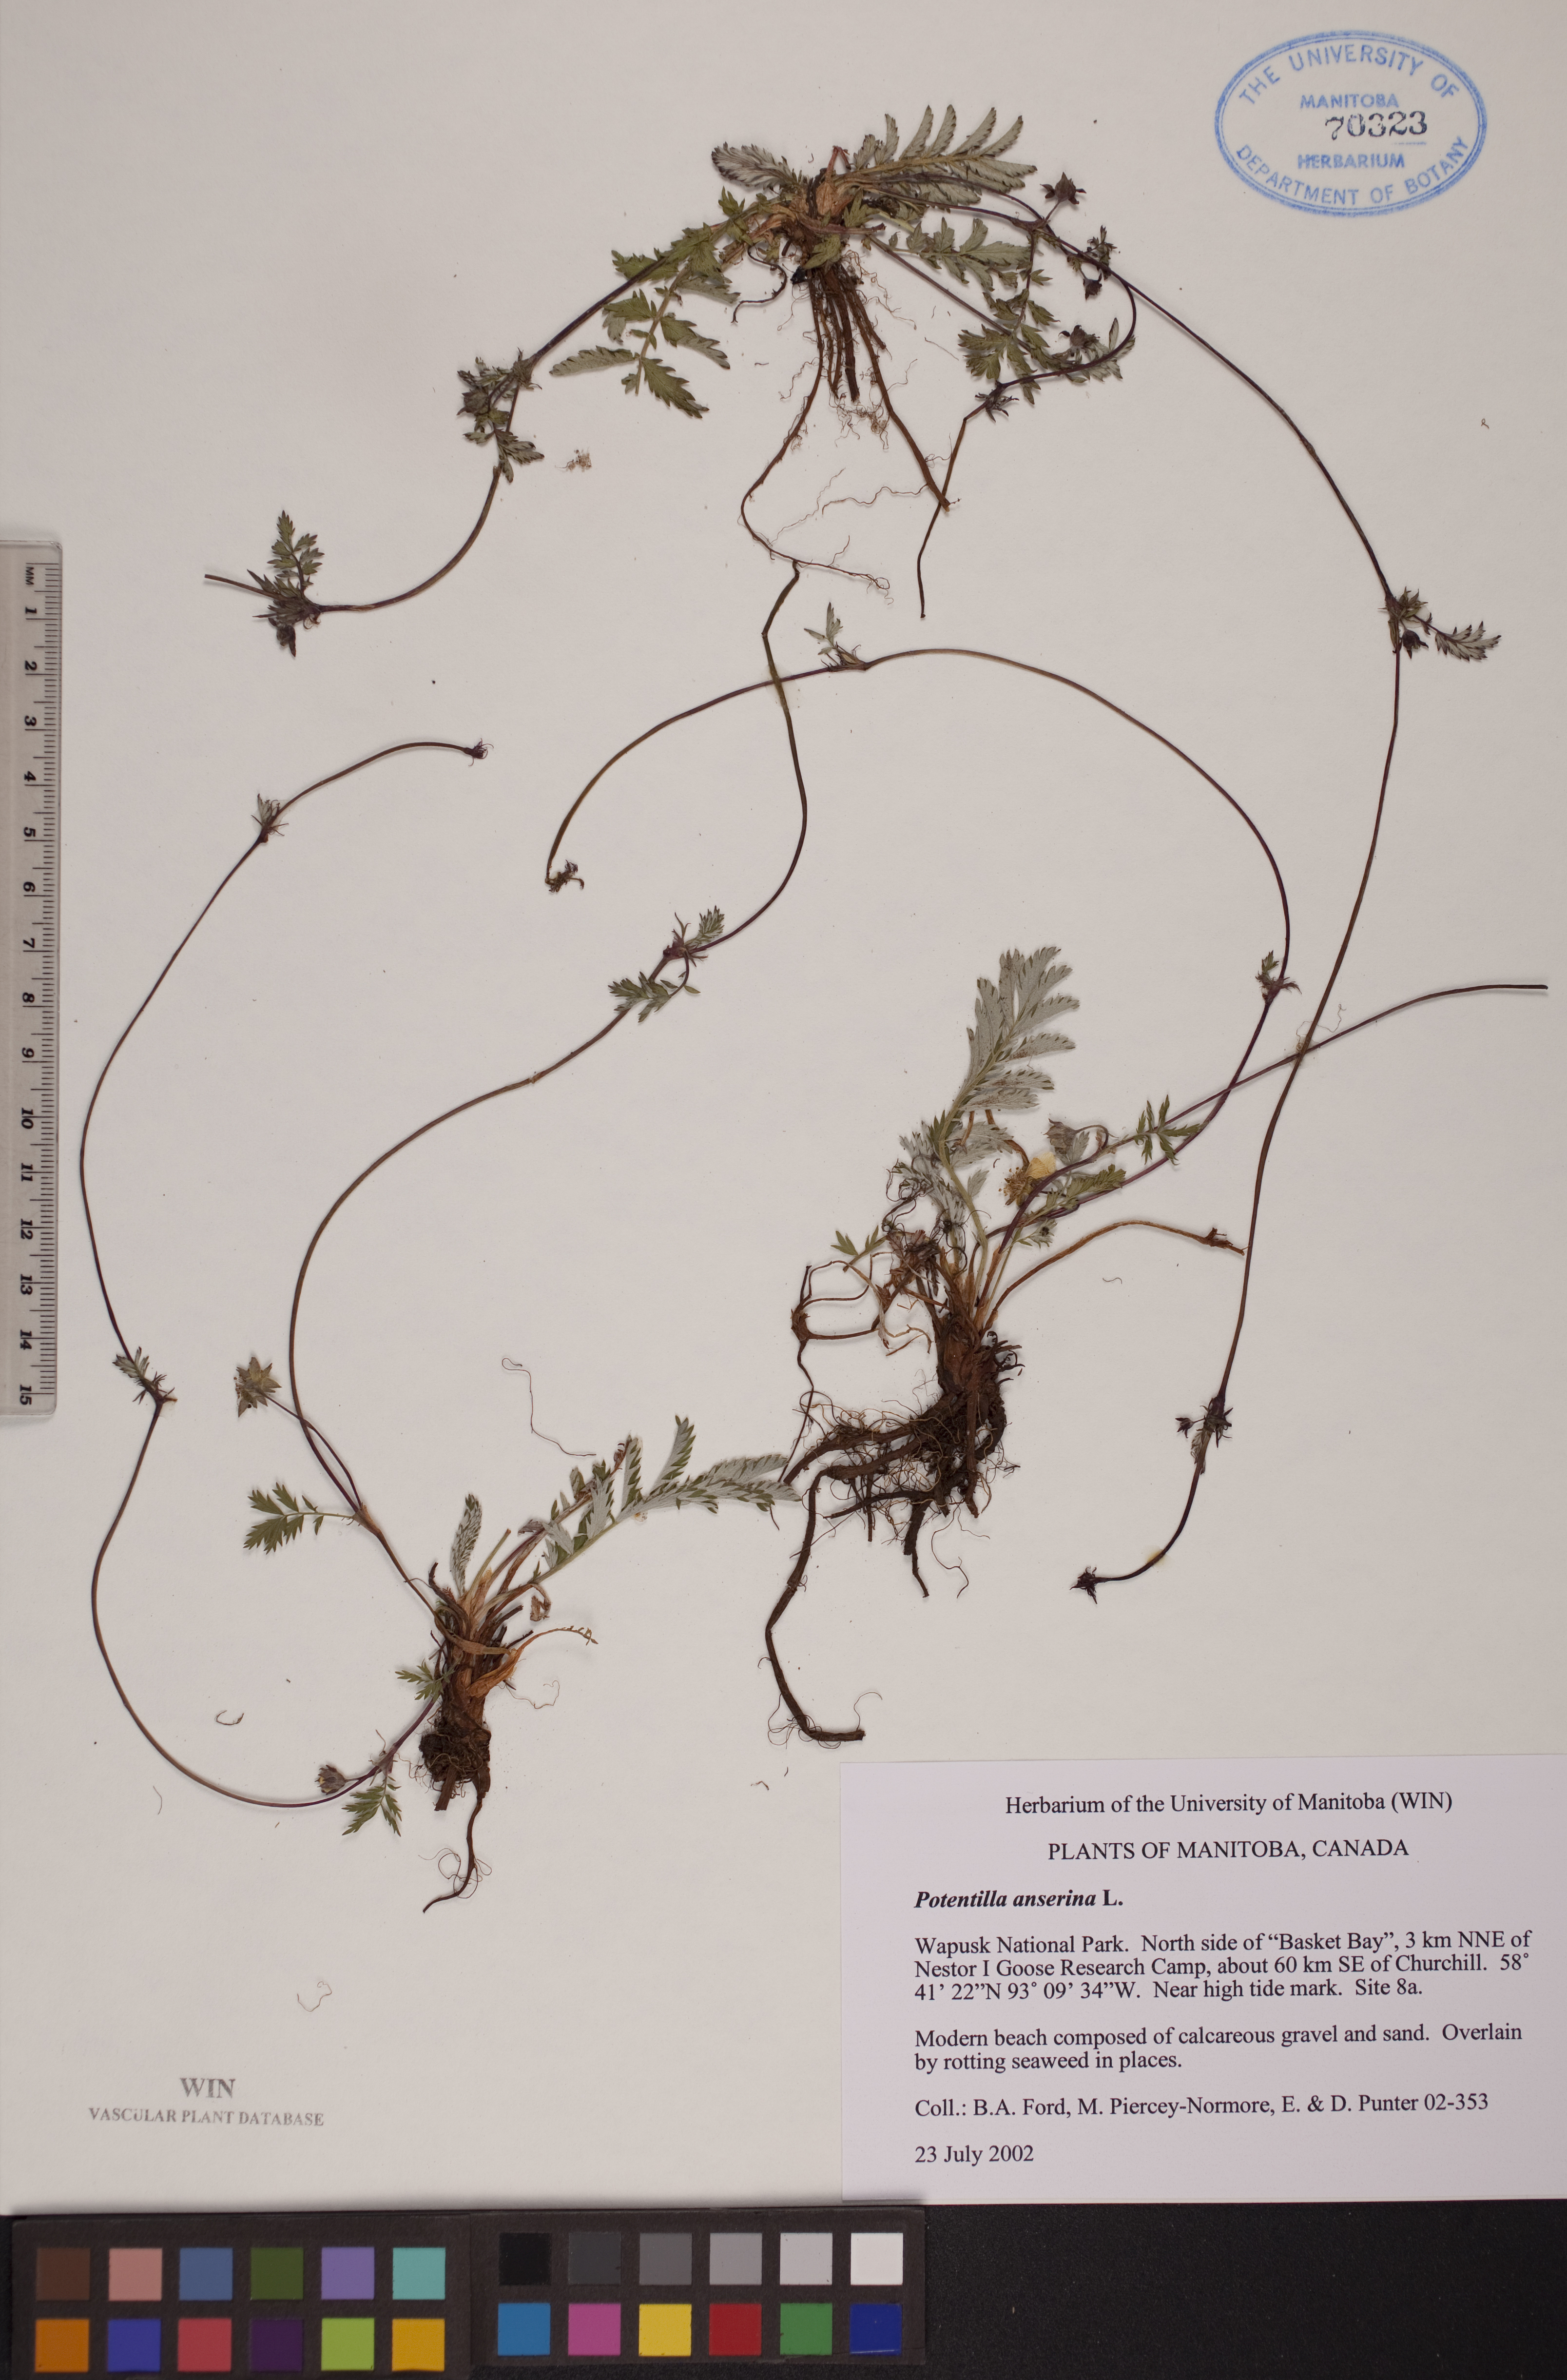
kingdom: Plantae
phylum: Tracheophyta
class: Magnoliopsida
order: Rosales
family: Rosaceae
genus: Argentina
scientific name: Argentina anserina
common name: Common silverweed
